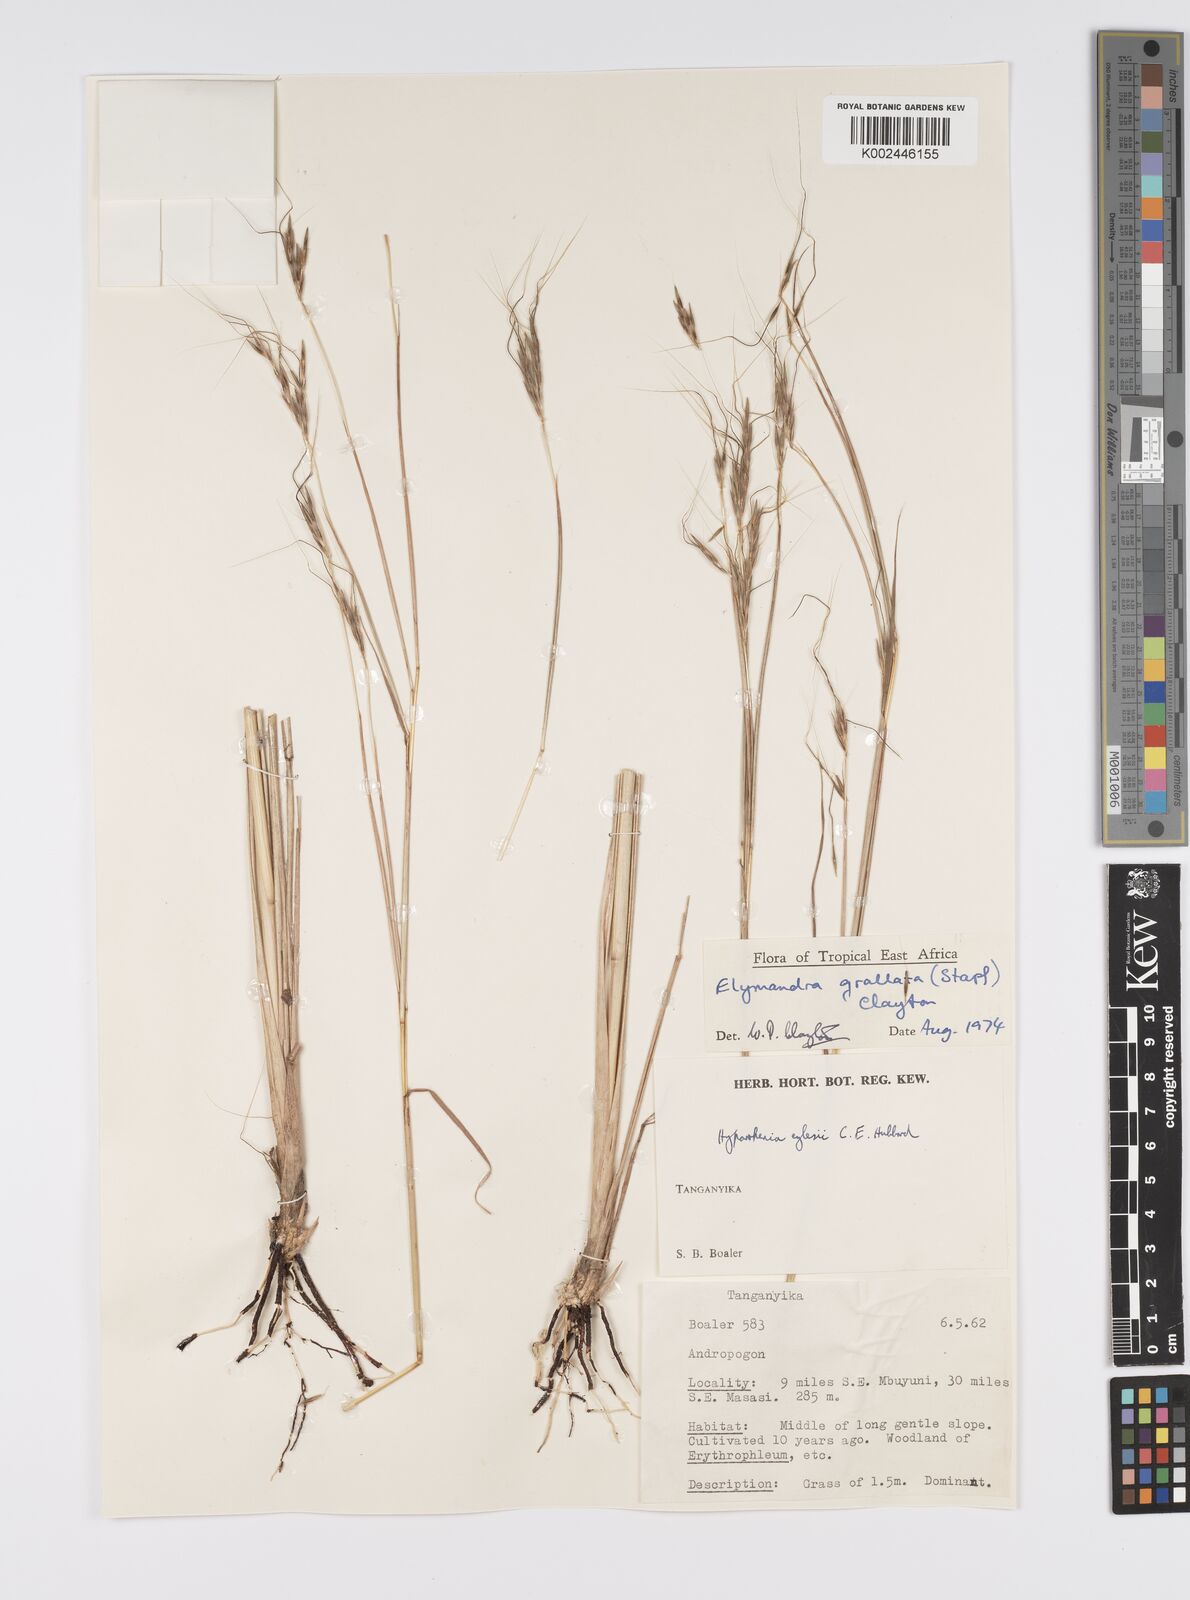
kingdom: Plantae
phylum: Tracheophyta
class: Liliopsida
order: Poales
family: Poaceae
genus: Elymandra
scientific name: Elymandra grallata
